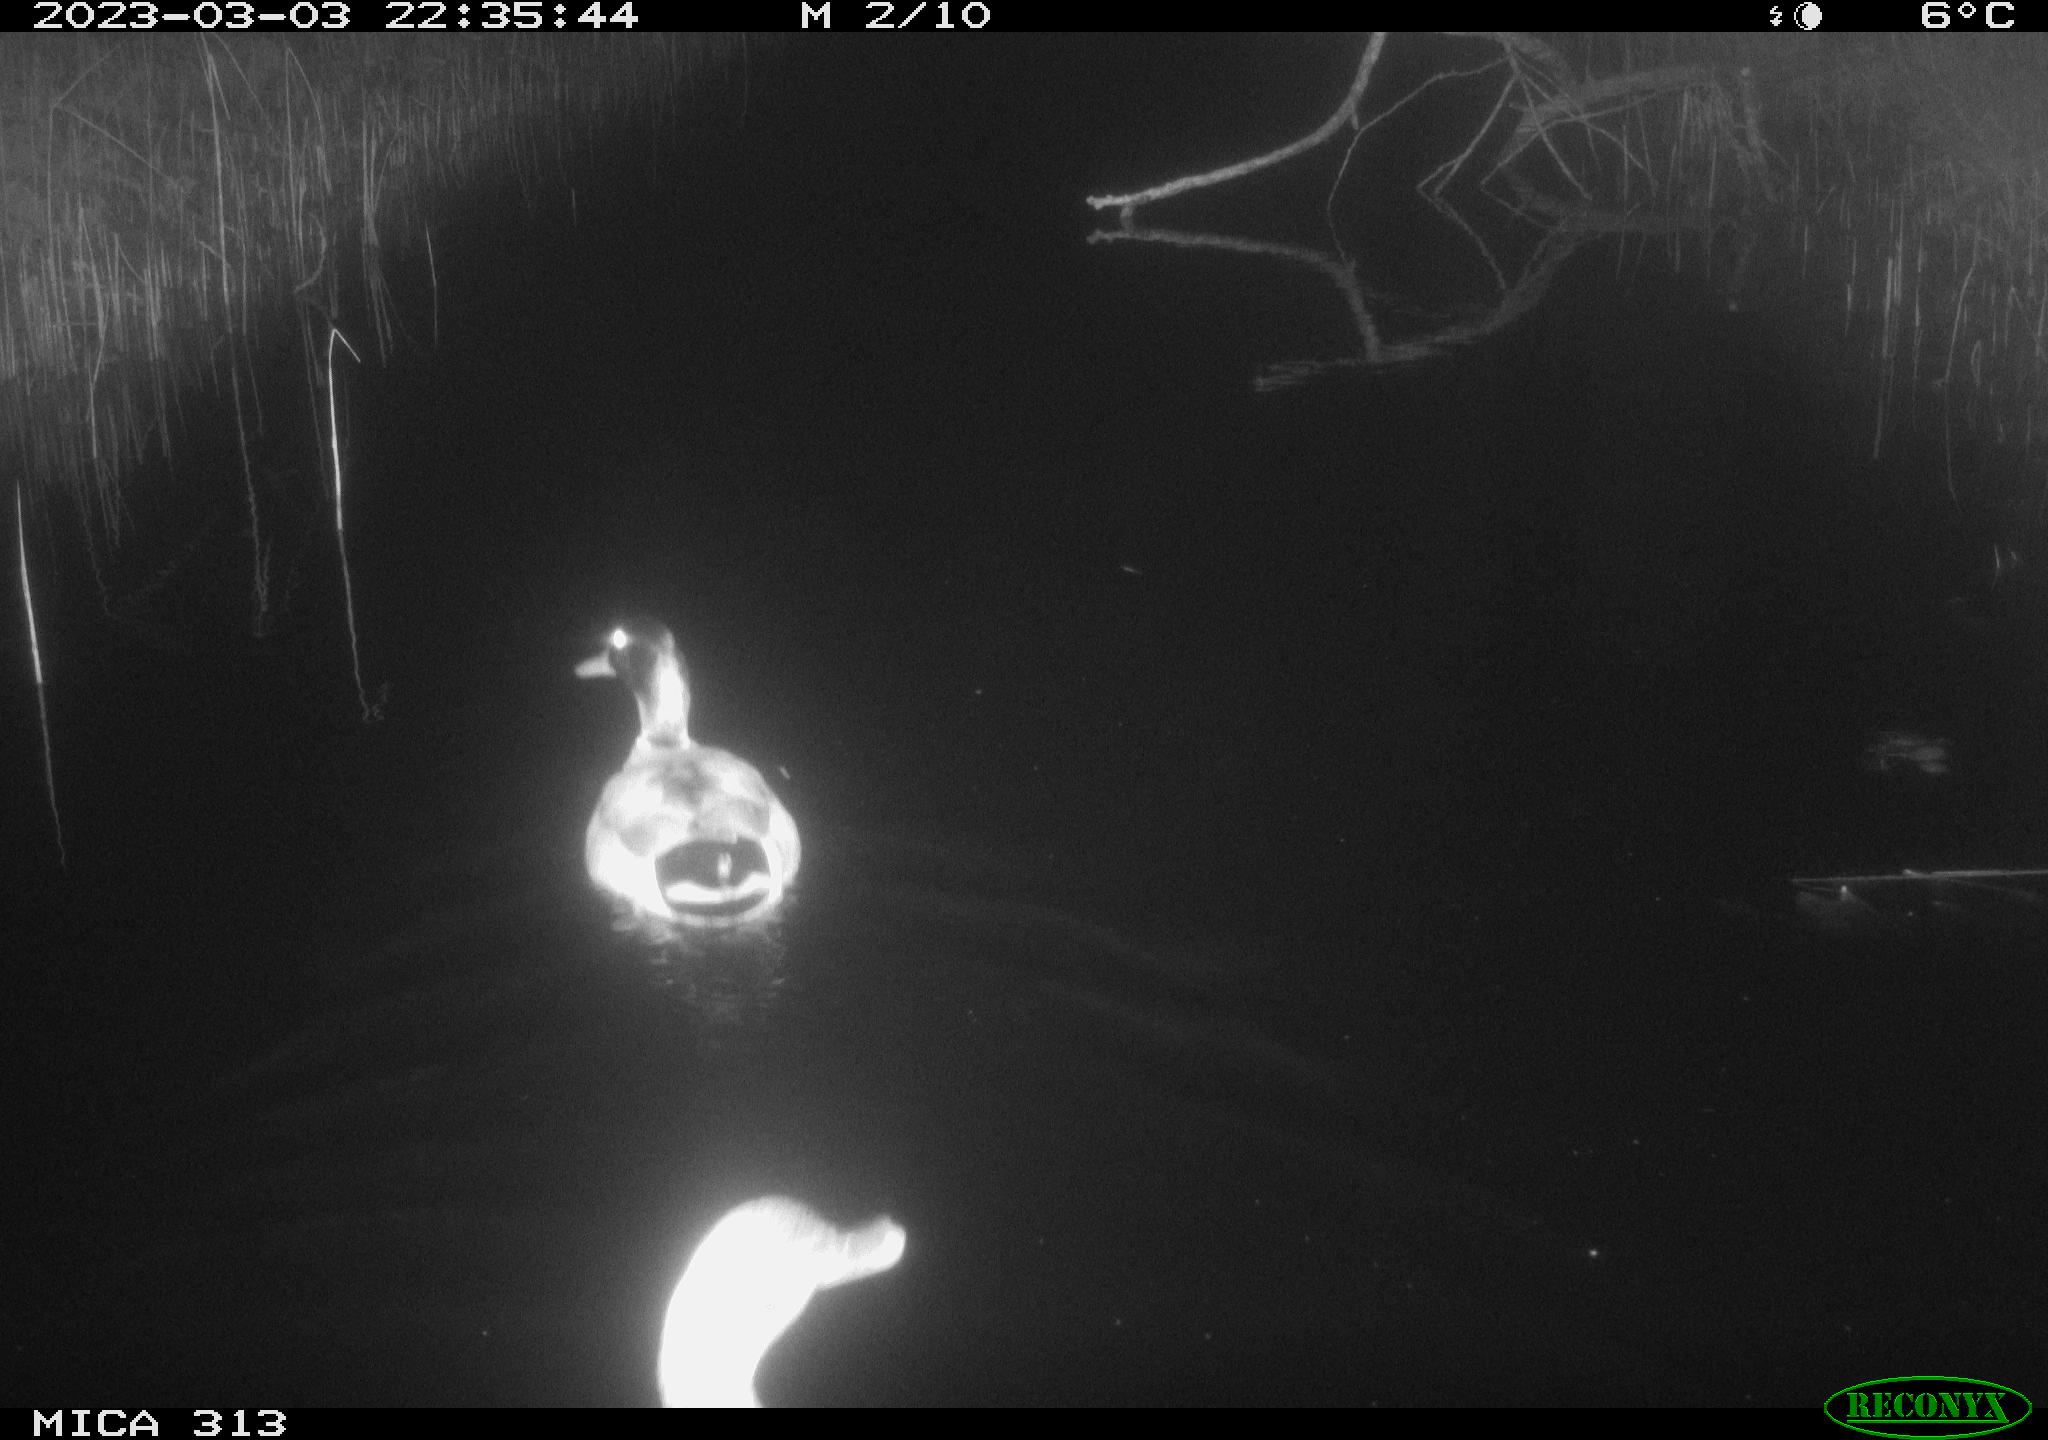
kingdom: Animalia
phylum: Chordata
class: Aves
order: Anseriformes
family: Anatidae
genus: Anas
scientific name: Anas
